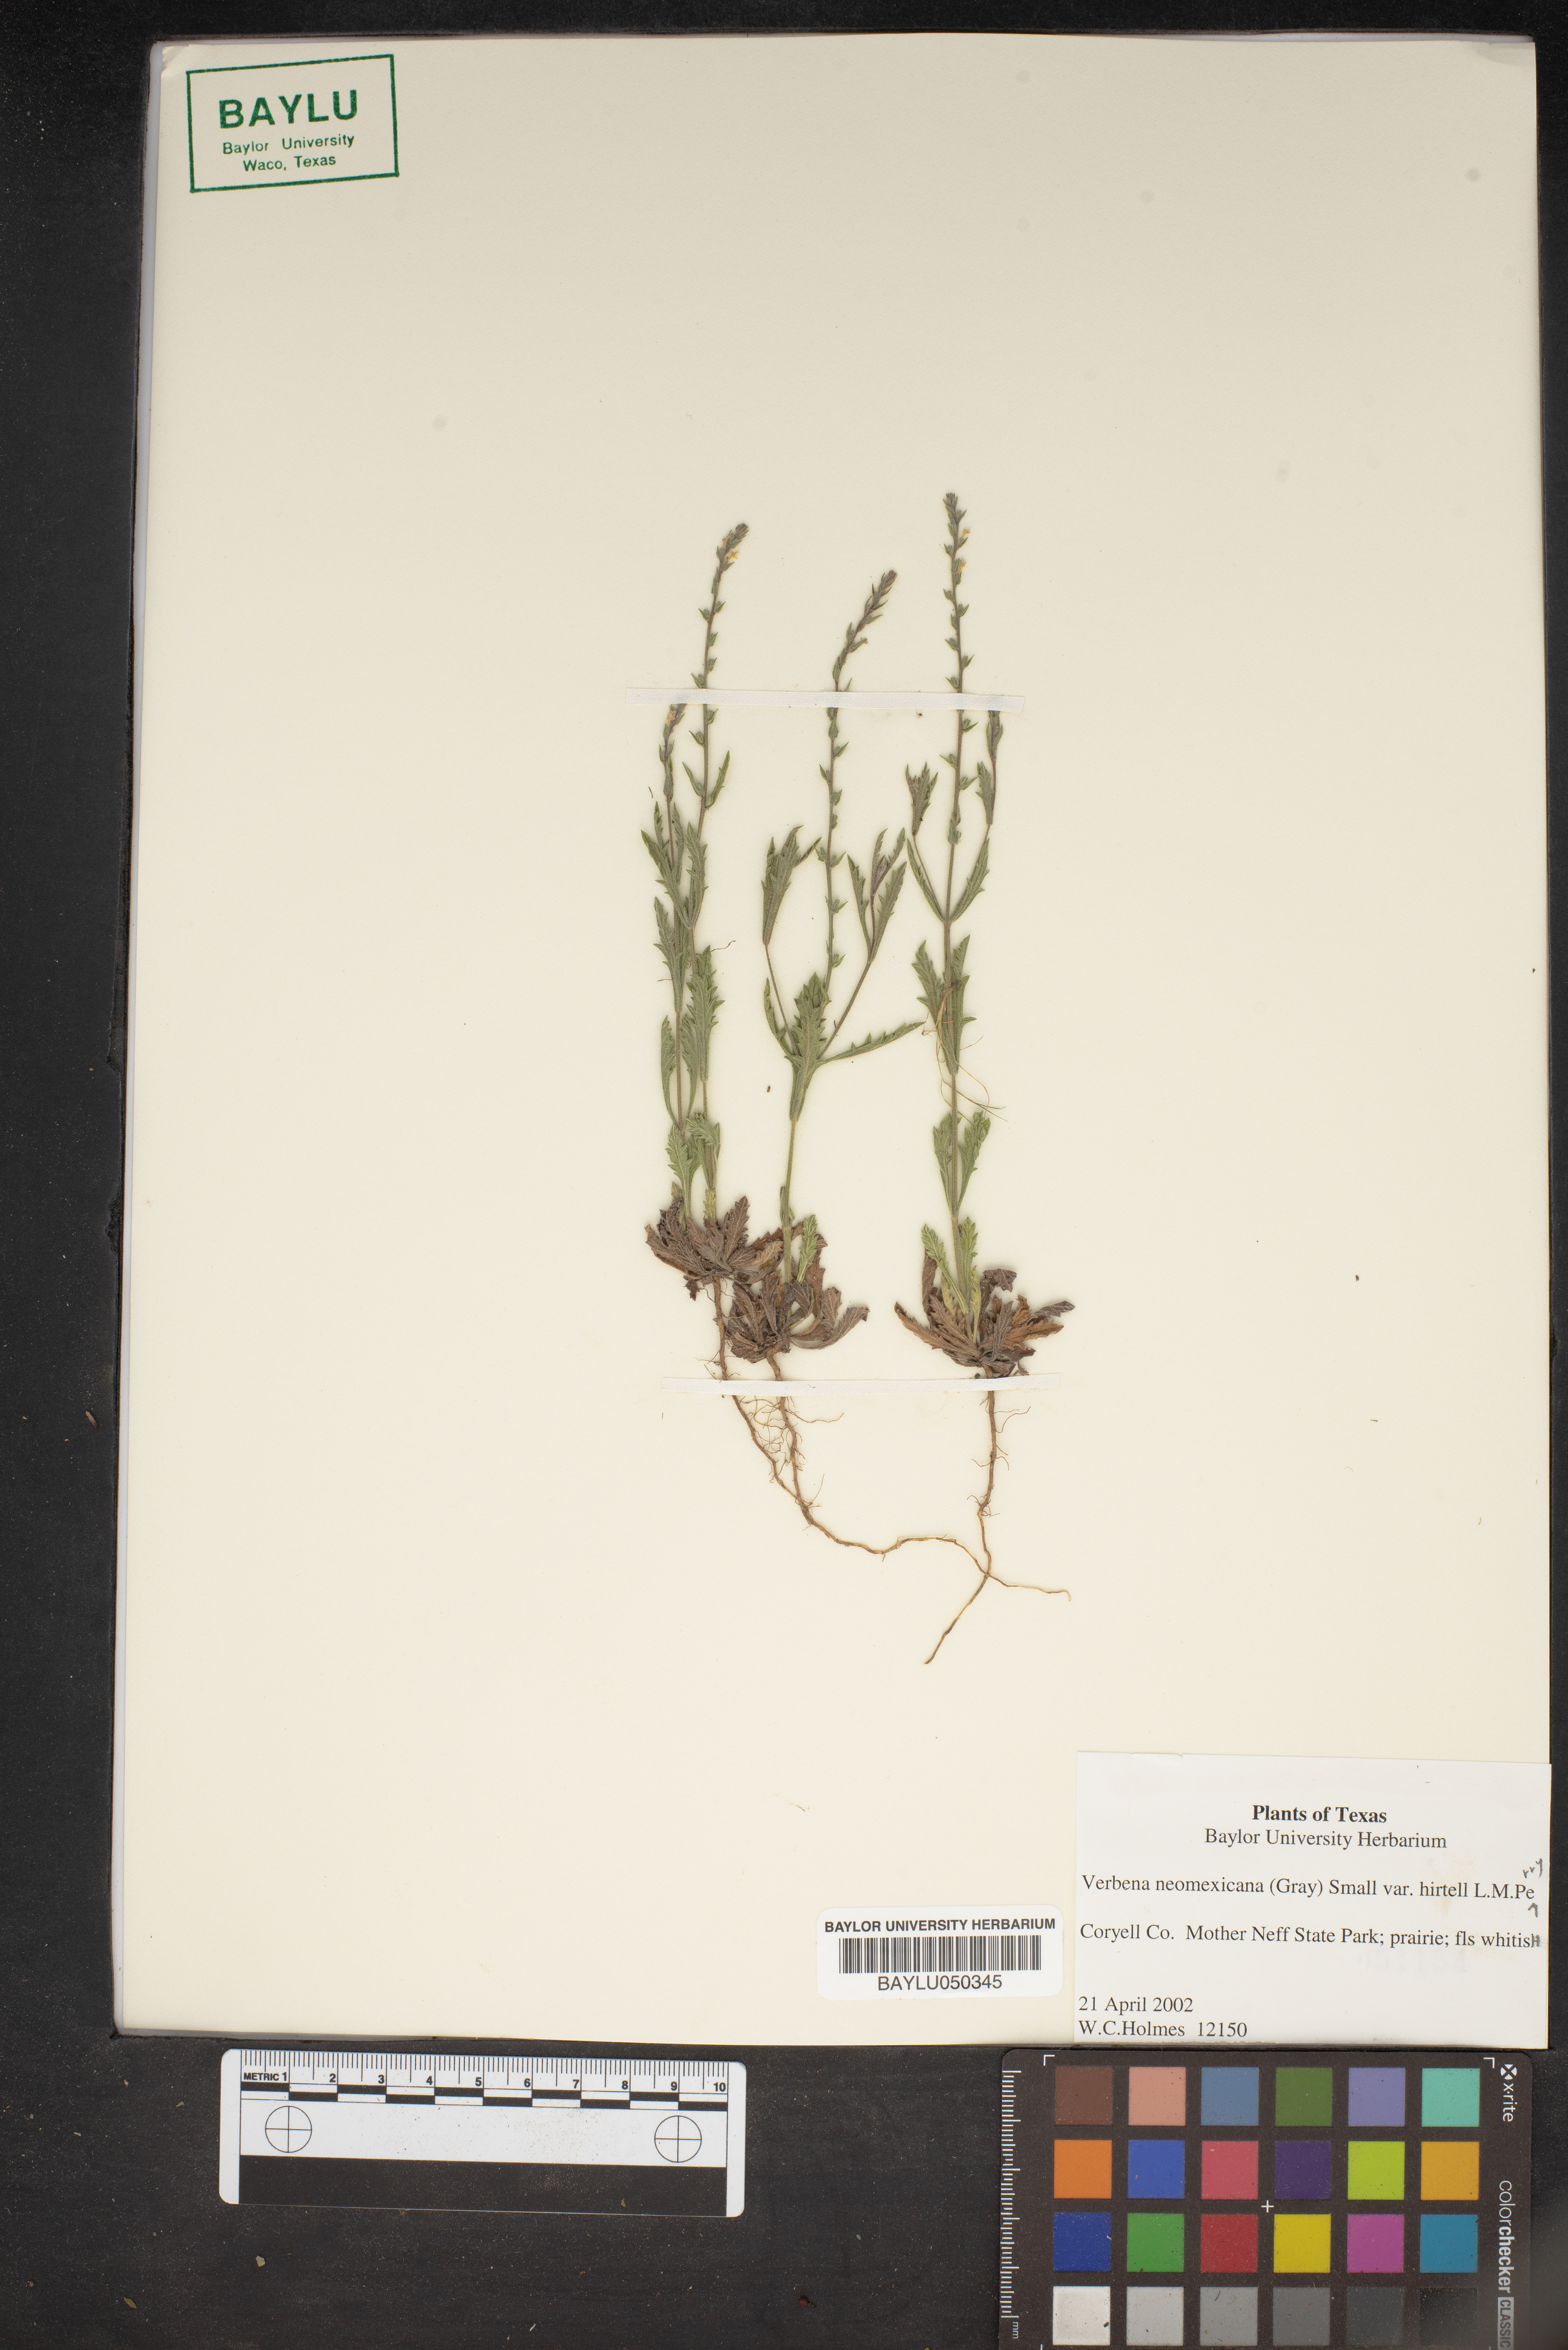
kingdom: Plantae
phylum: Tracheophyta
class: Magnoliopsida
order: Lamiales
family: Verbenaceae
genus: Verbena
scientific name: Verbena neomexicana
